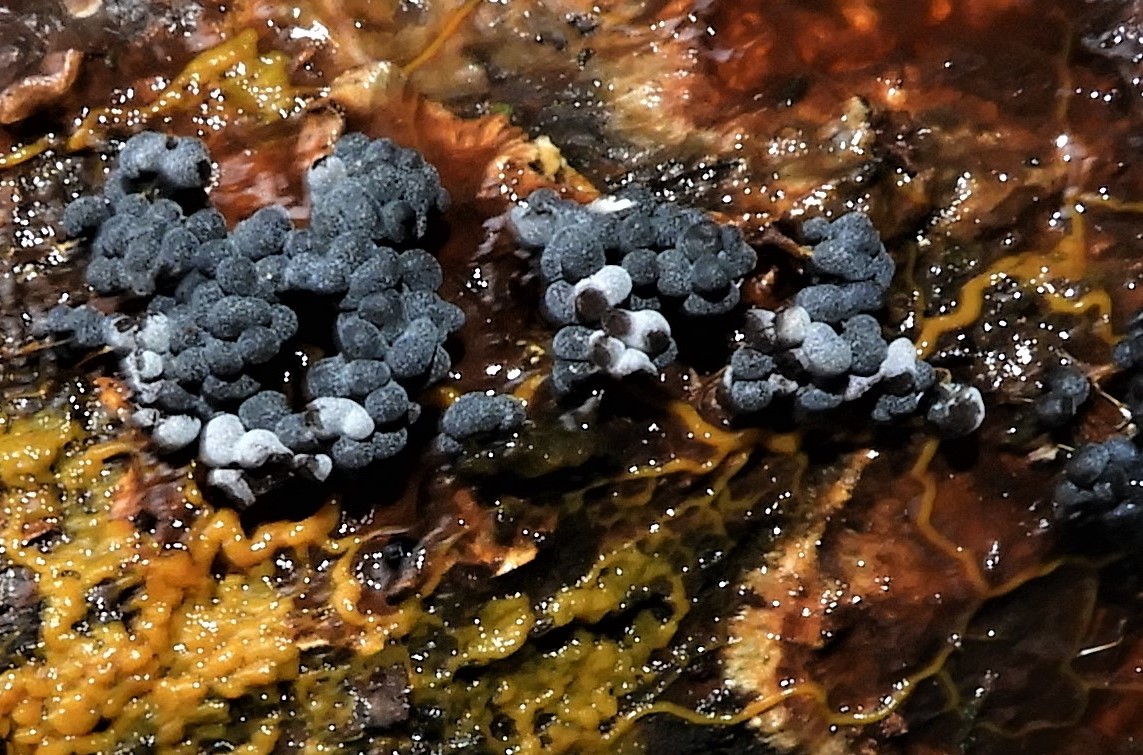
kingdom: Protozoa
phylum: Mycetozoa
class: Myxomycetes
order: Physarales
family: Physaraceae
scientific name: Physaraceae
